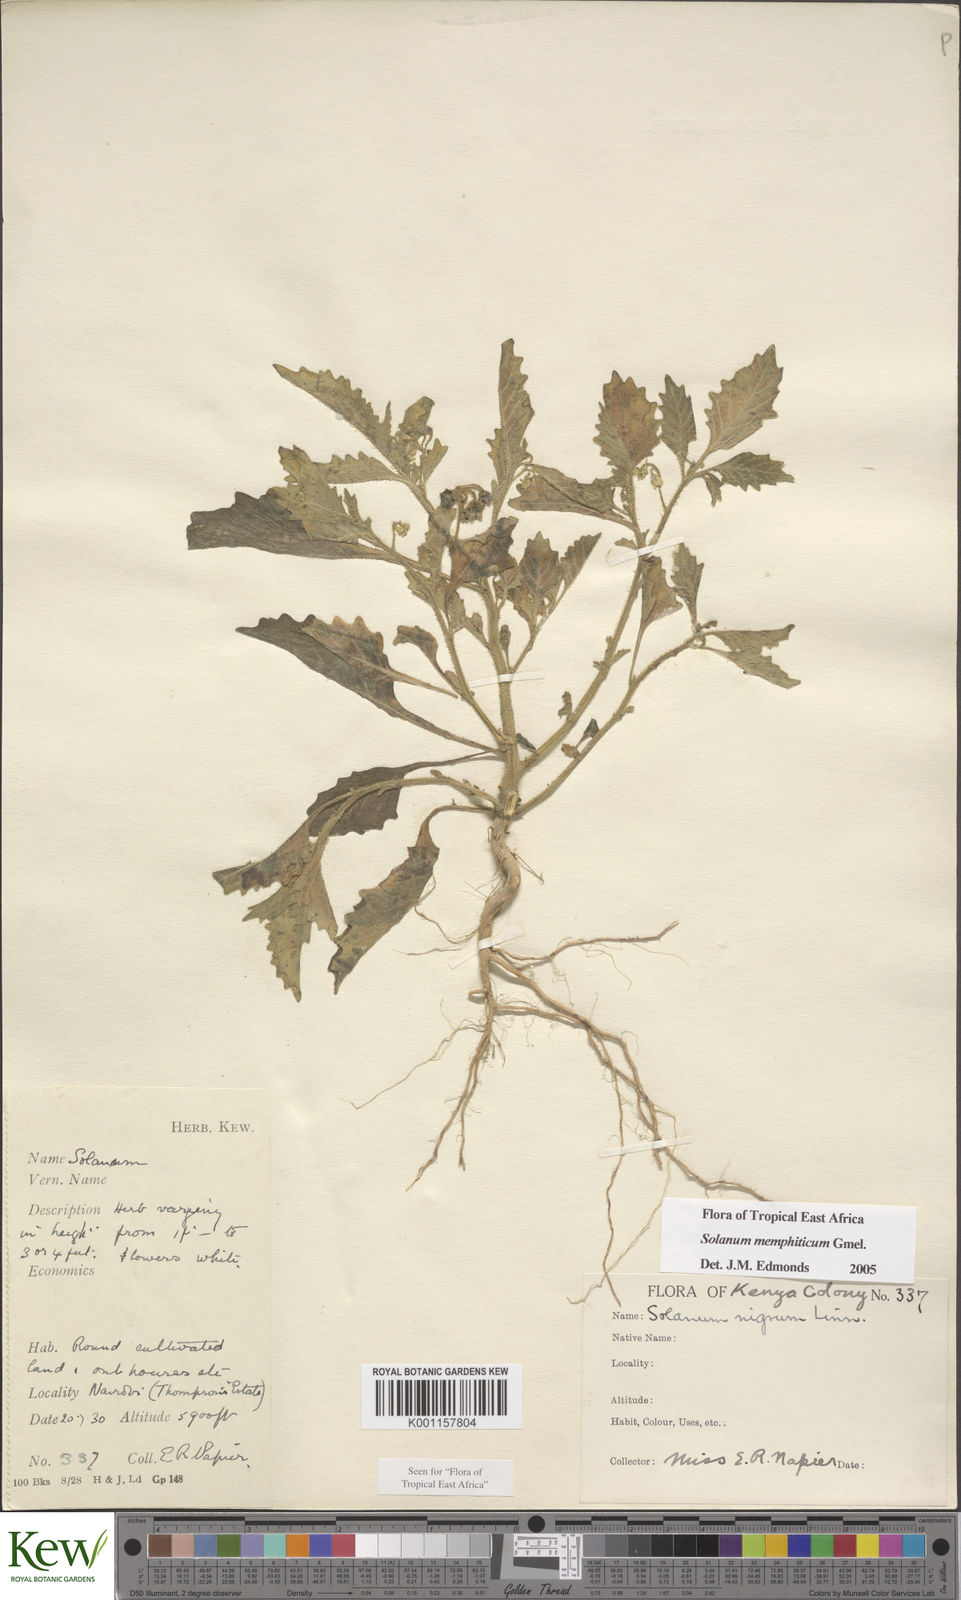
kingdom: Plantae
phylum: Tracheophyta
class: Magnoliopsida
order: Solanales
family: Solanaceae
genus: Solanum
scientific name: Solanum memphiticum
